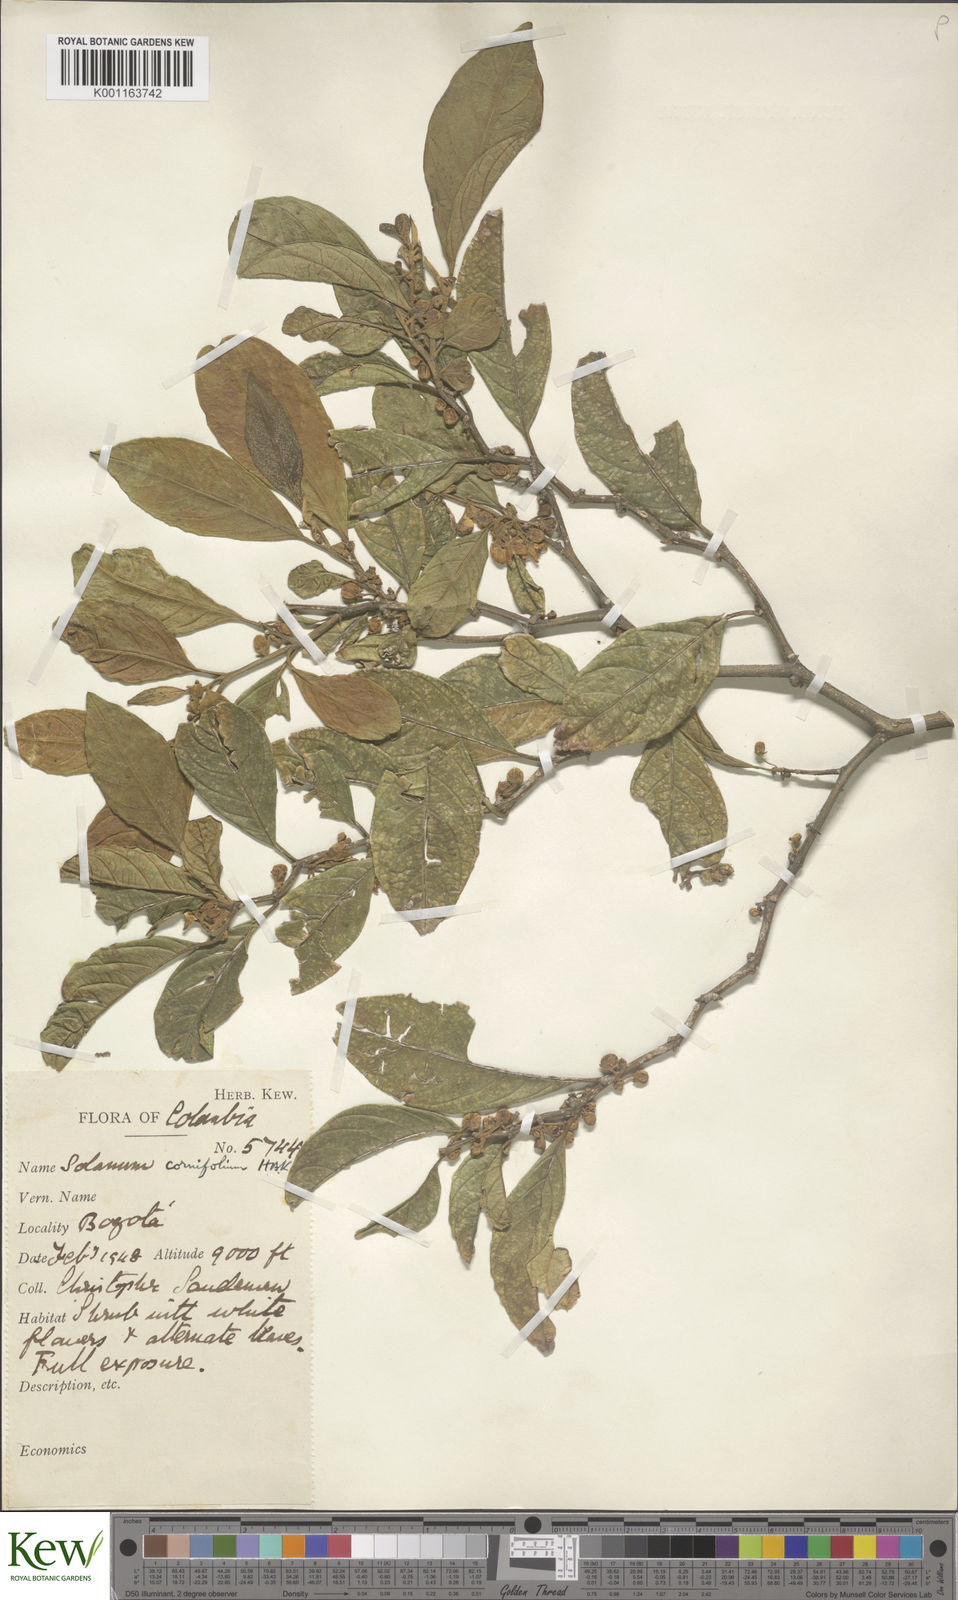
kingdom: Plantae
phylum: Tracheophyta
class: Magnoliopsida
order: Solanales
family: Solanaceae
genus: Solanum
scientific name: Solanum cornifolium
